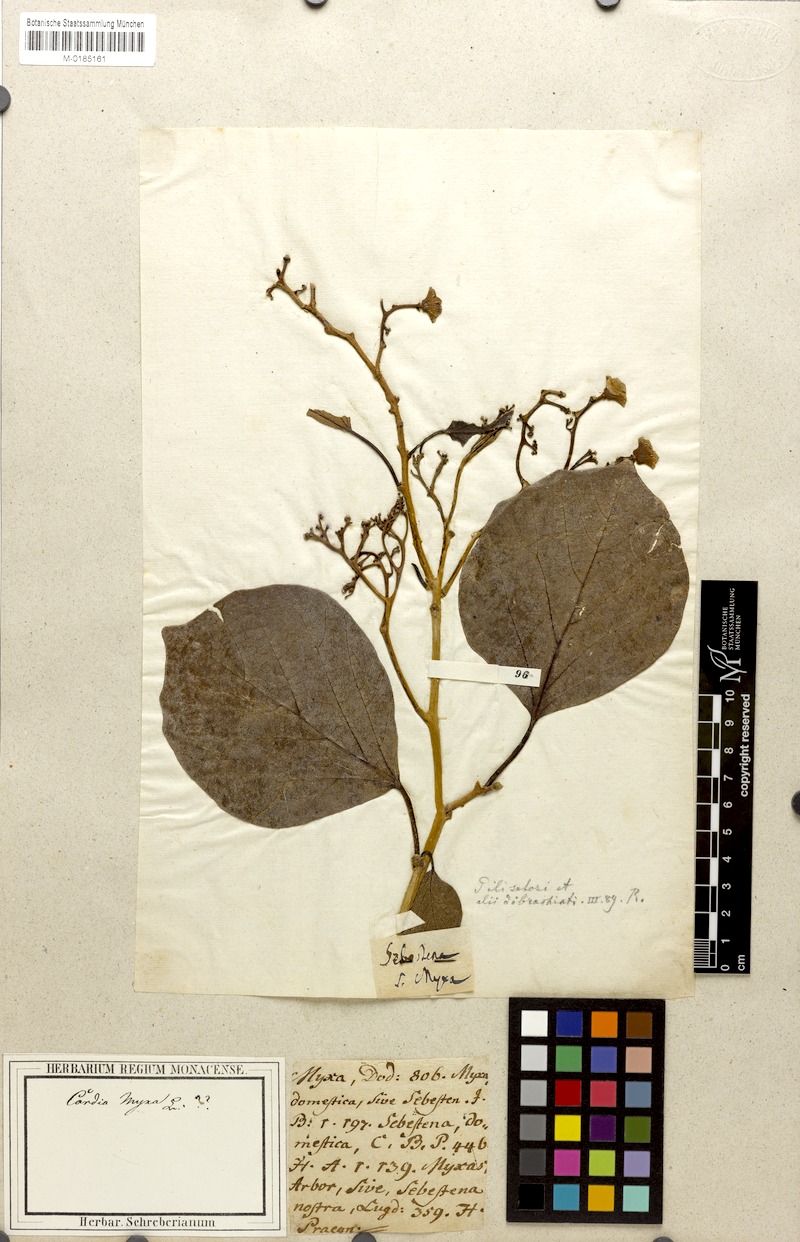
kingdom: Plantae
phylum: Tracheophyta
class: Magnoliopsida
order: Boraginales
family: Cordiaceae
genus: Cordia
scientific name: Cordia myxa
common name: Assyrian plum
